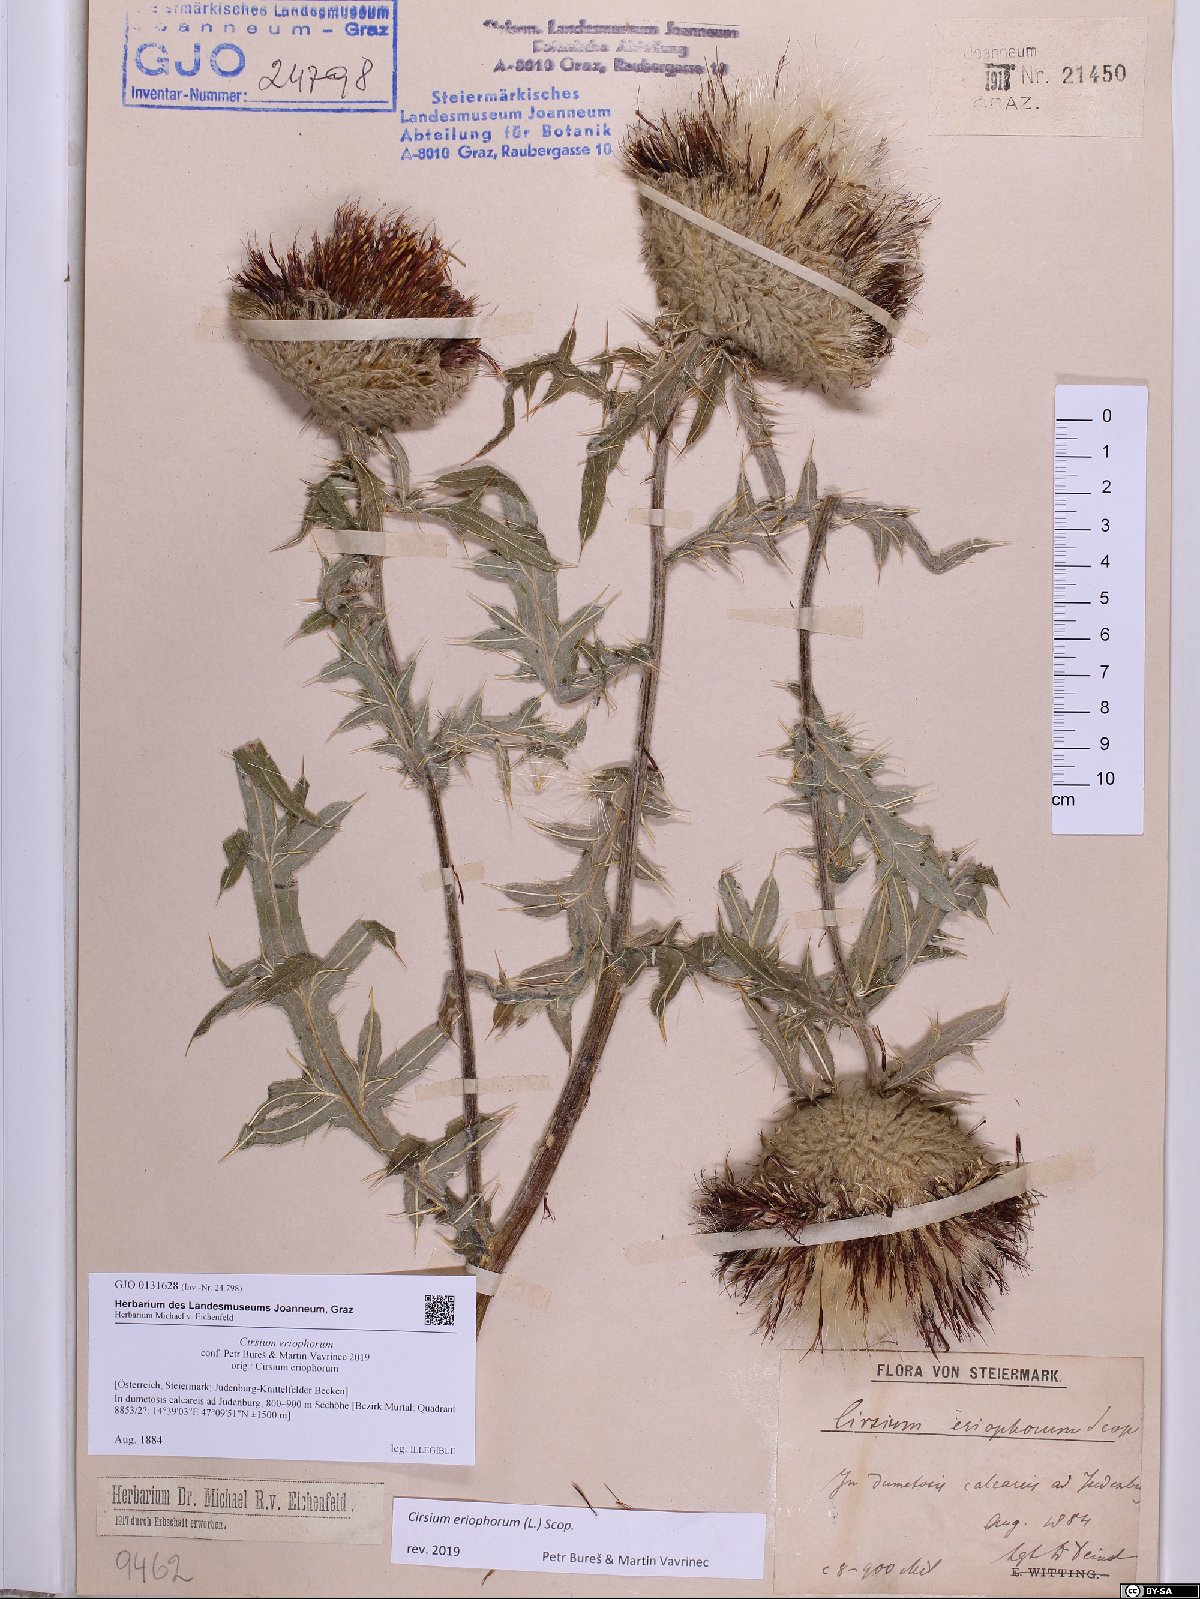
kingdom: Plantae
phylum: Tracheophyta
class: Magnoliopsida
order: Asterales
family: Asteraceae
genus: Lophiolepis
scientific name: Lophiolepis eriophora
